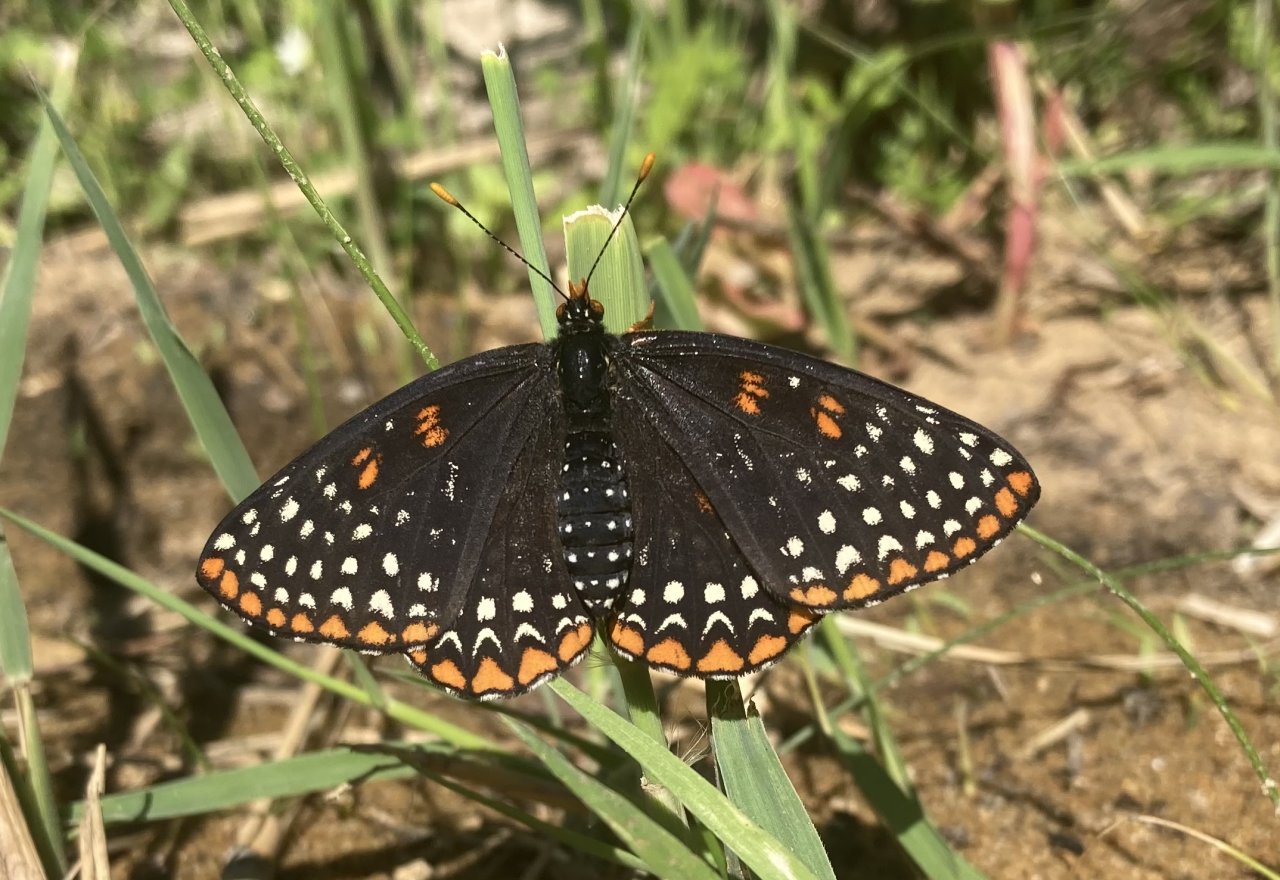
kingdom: Animalia
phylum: Arthropoda
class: Insecta
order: Lepidoptera
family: Nymphalidae
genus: Euphydryas
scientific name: Euphydryas phaeton
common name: Baltimore Checkerspot
